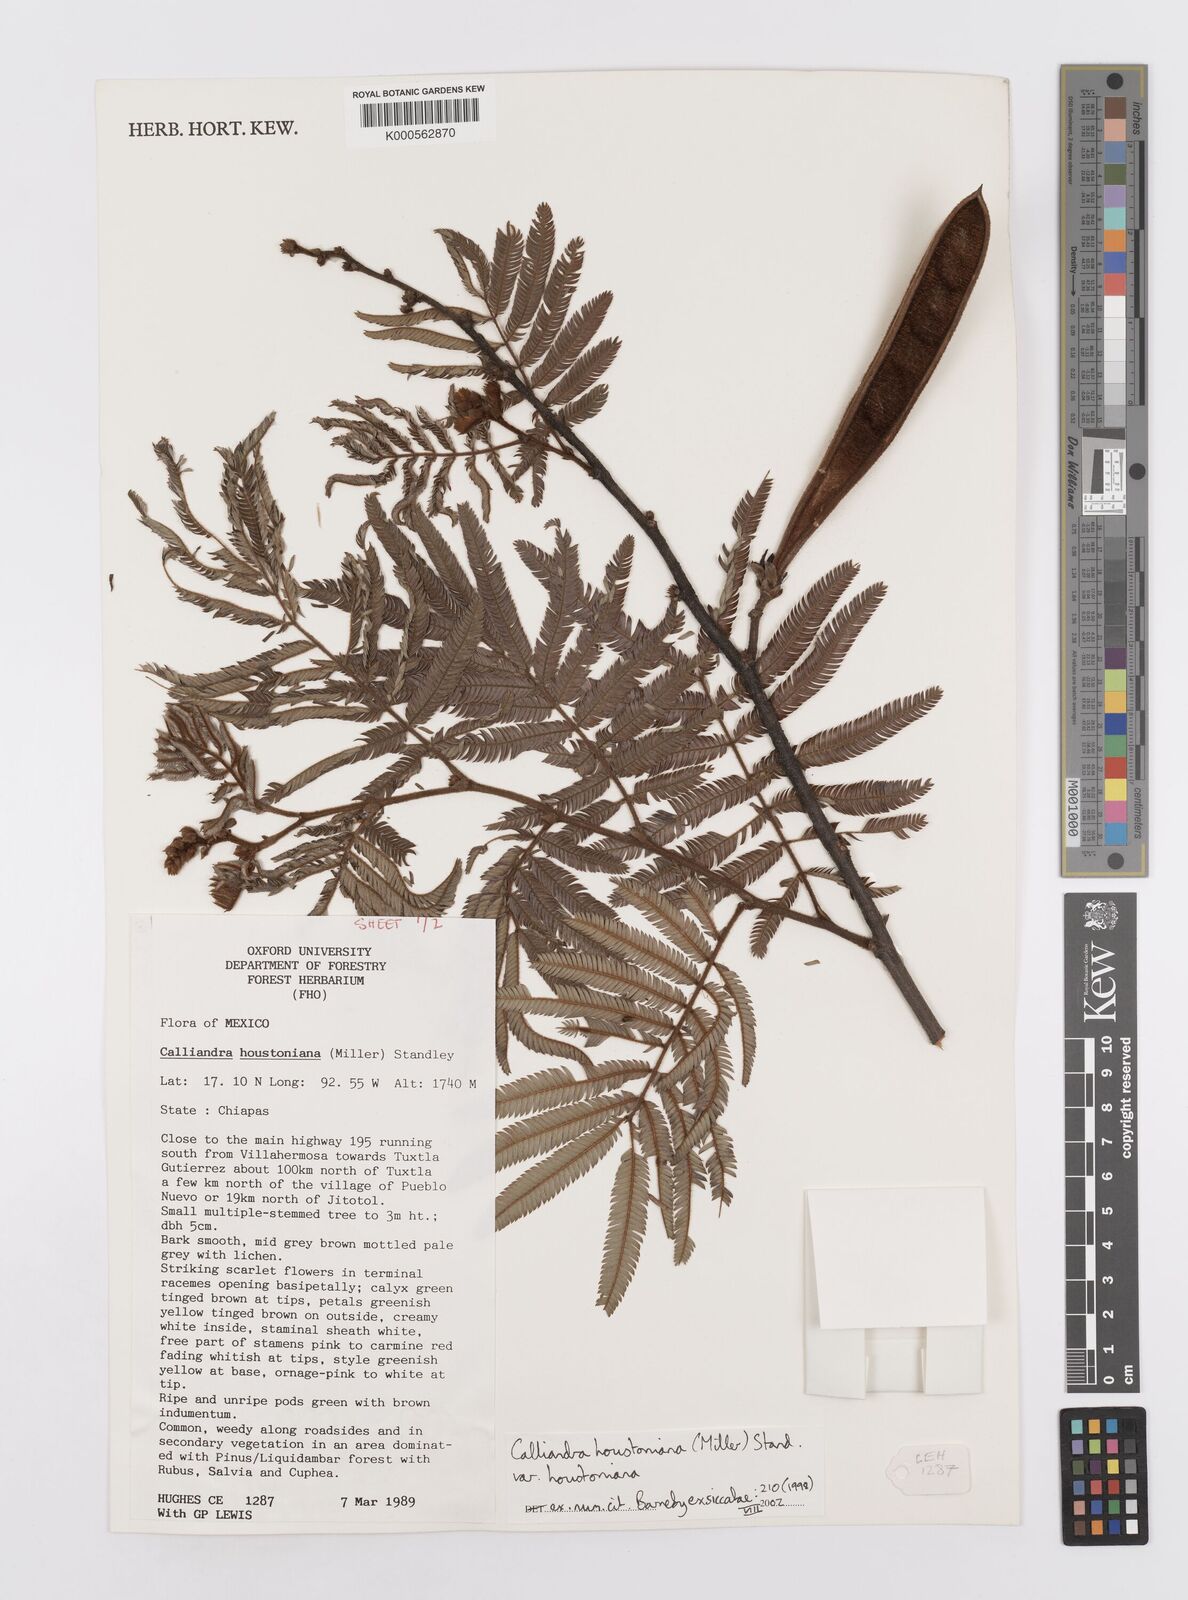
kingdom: Plantae
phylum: Tracheophyta
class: Magnoliopsida
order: Fabales
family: Fabaceae
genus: Calliandra
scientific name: Calliandra houstoniana
